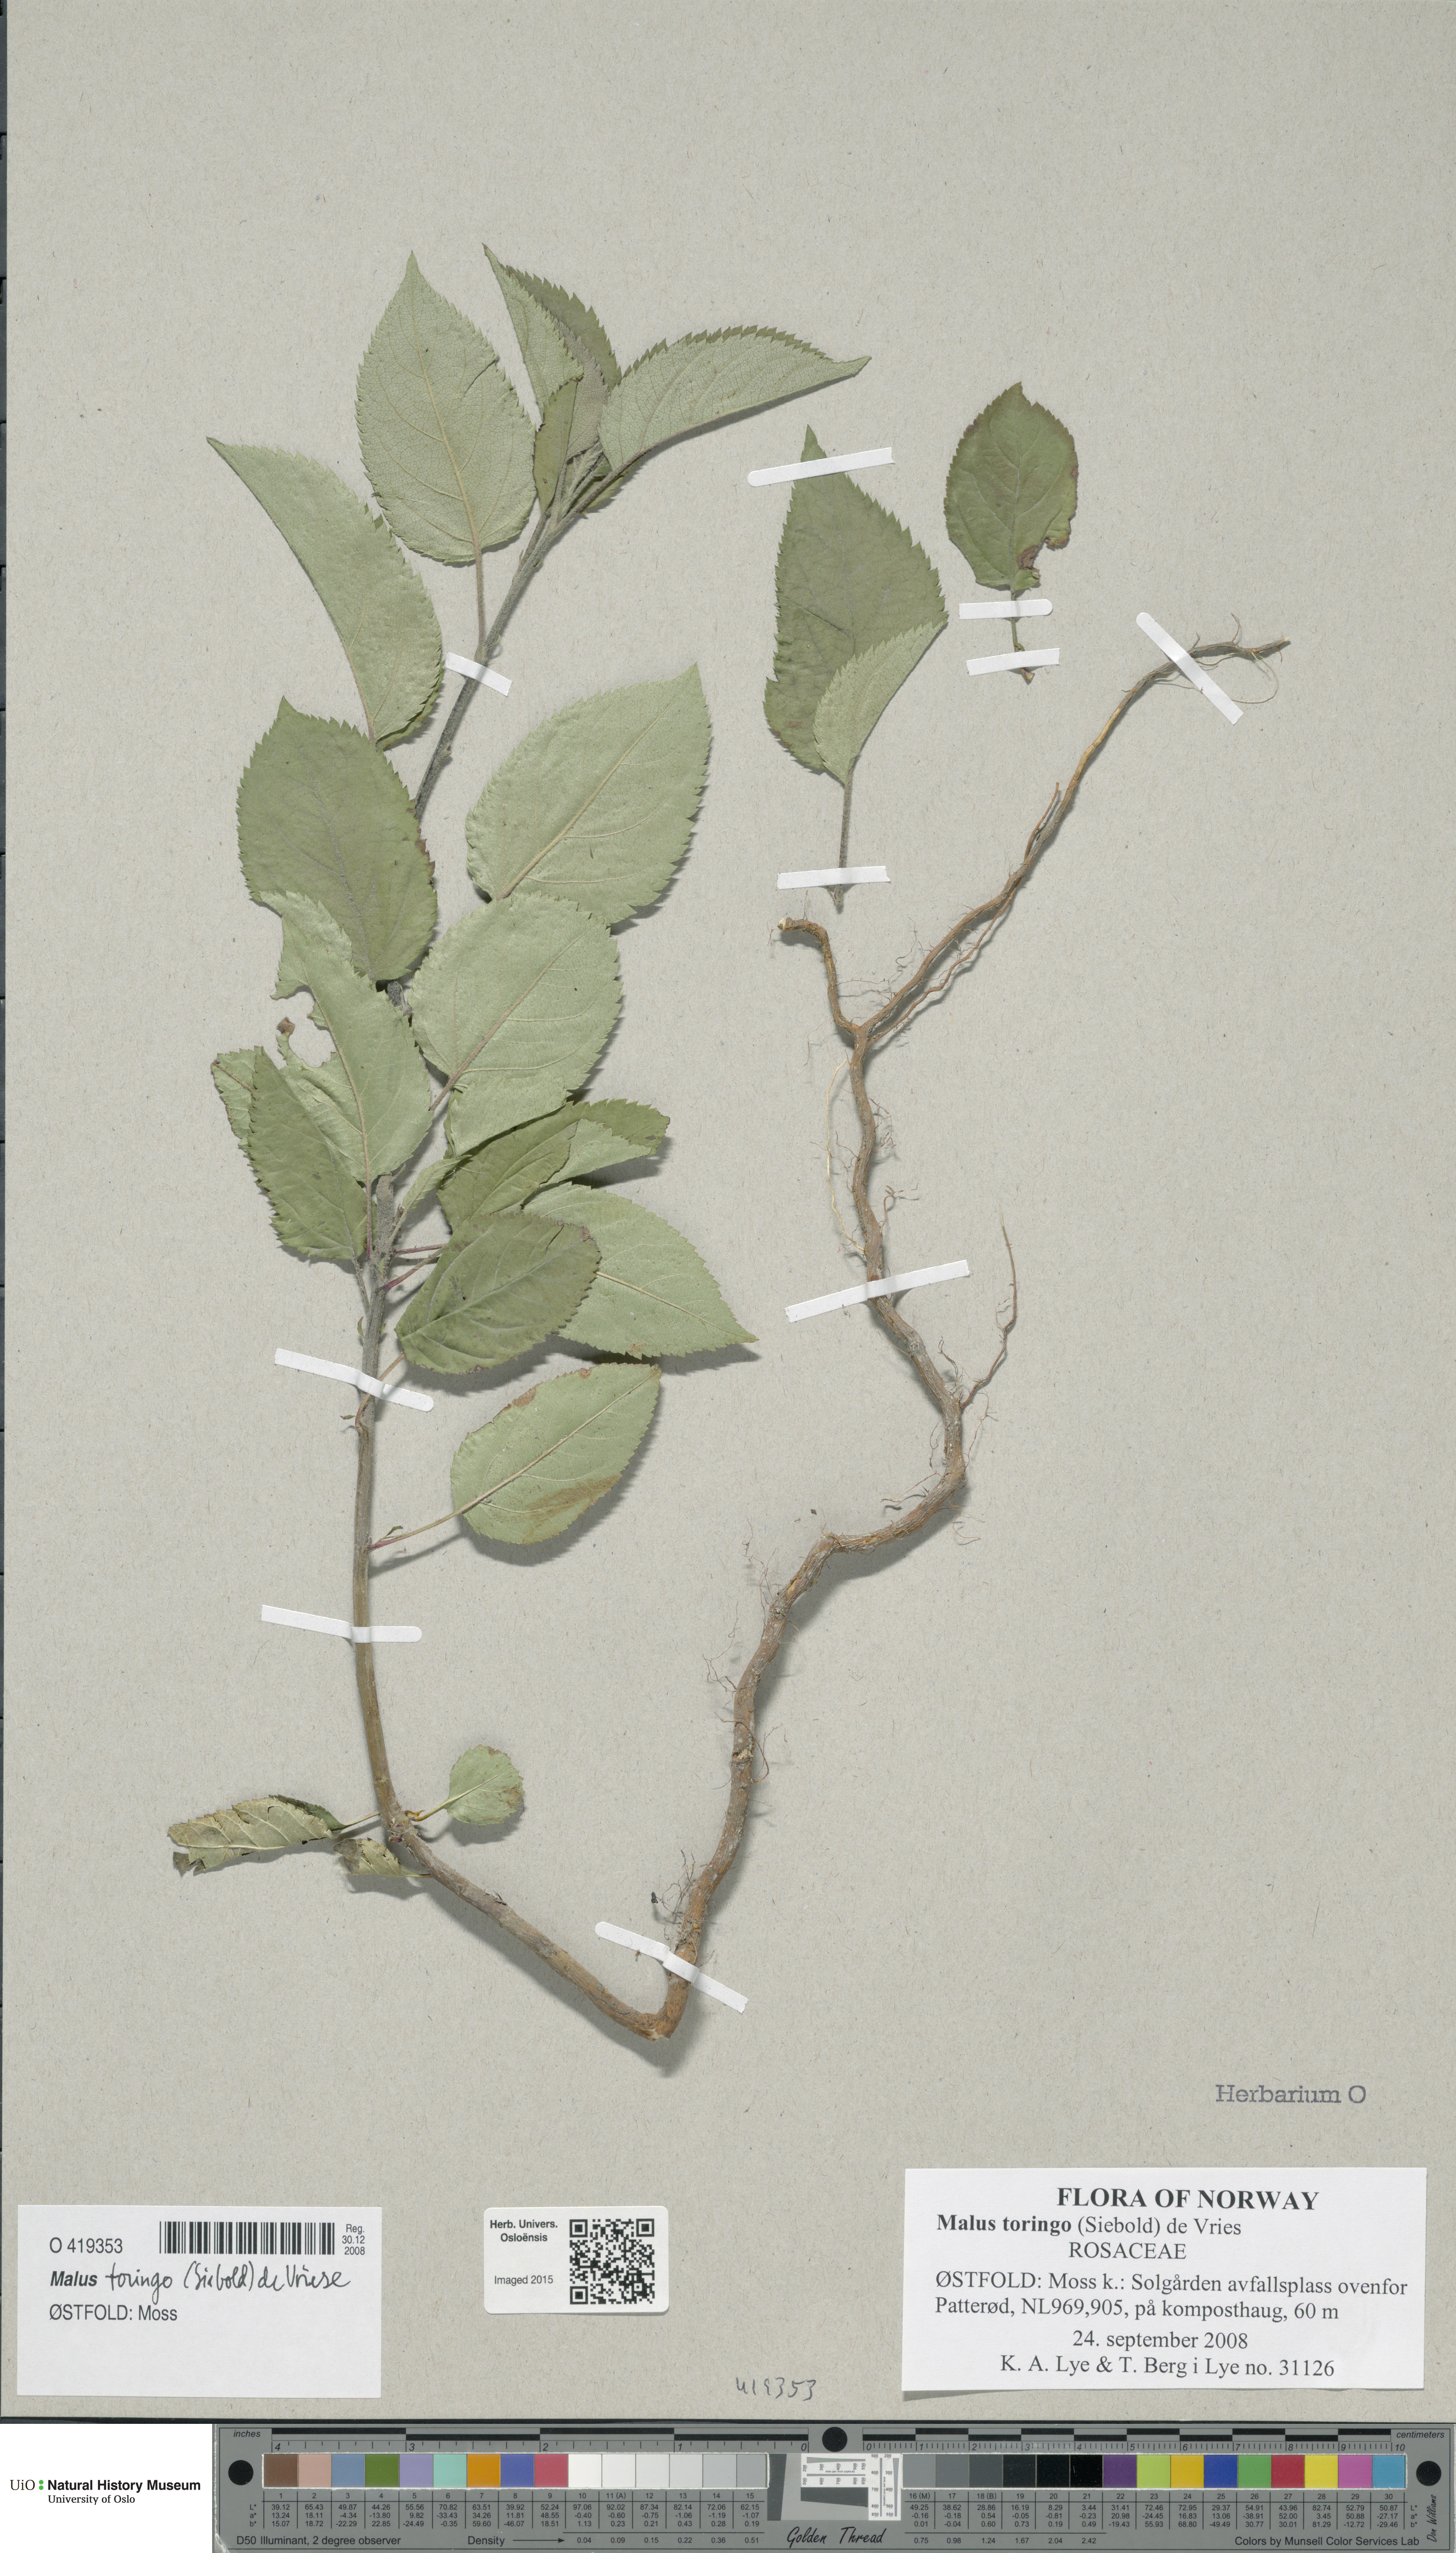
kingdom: Plantae
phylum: Tracheophyta
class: Magnoliopsida
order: Rosales
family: Rosaceae
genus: Malus
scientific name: Malus
